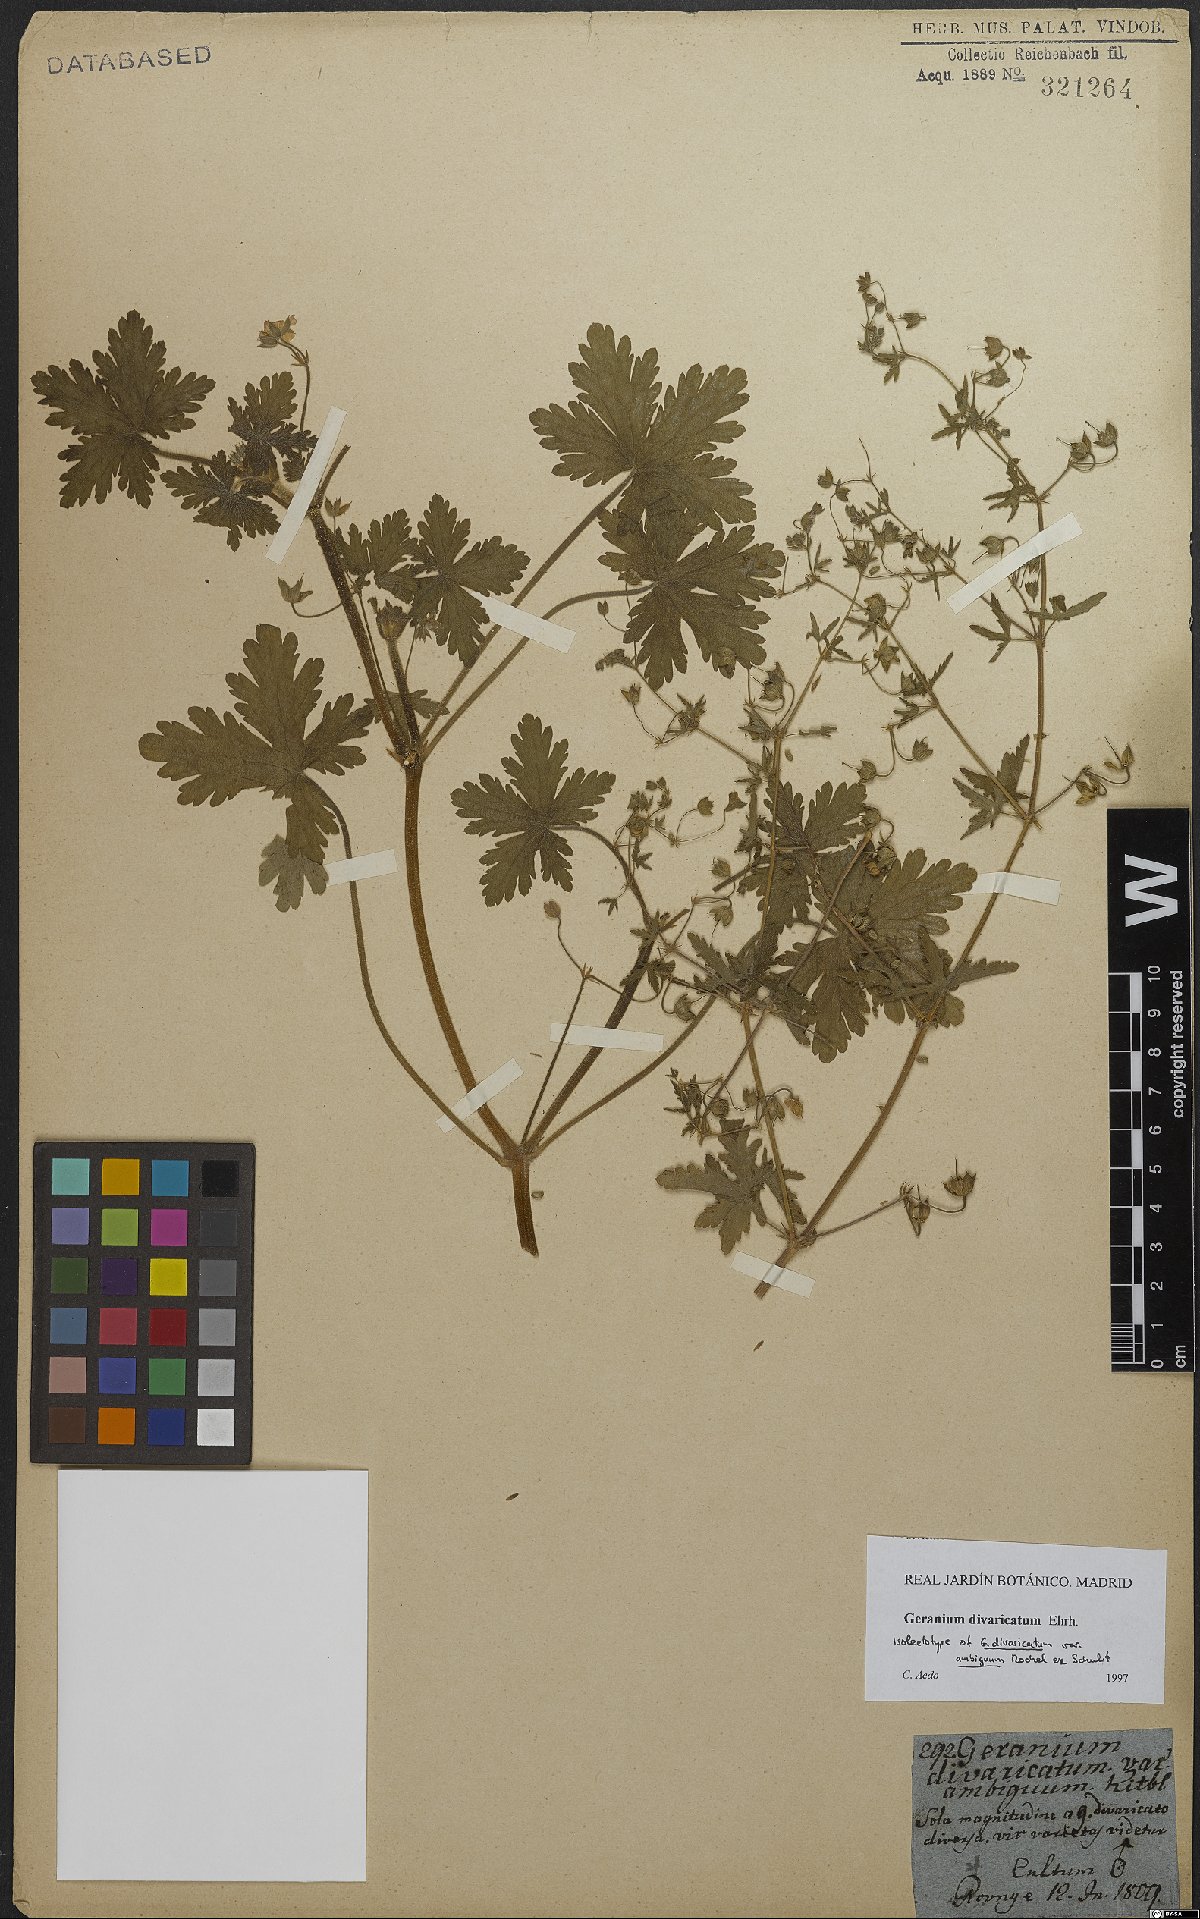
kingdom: Plantae
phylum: Tracheophyta
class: Magnoliopsida
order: Geraniales
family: Geraniaceae
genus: Geranium
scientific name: Geranium divaricatum
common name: Spreading crane's-bill
